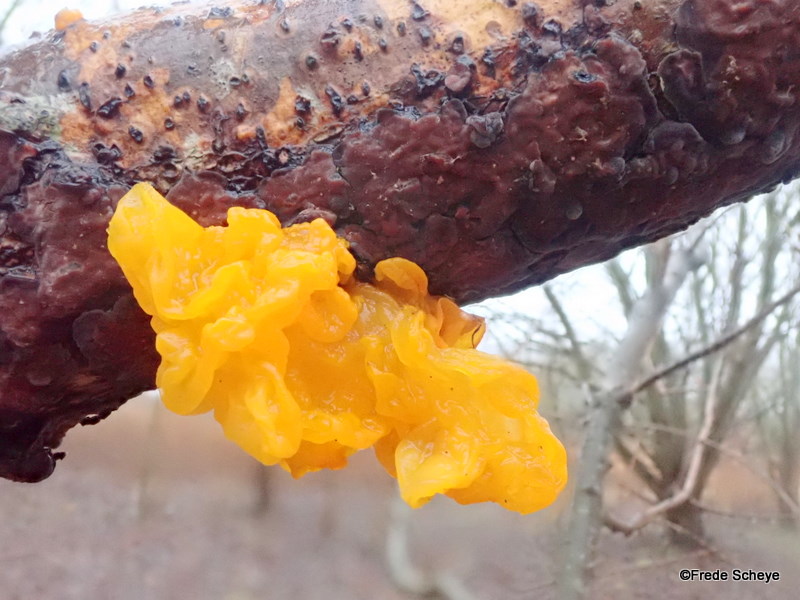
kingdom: Fungi
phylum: Basidiomycota
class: Tremellomycetes
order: Tremellales
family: Tremellaceae
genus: Tremella
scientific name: Tremella mesenterica
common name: gul bævresvamp
